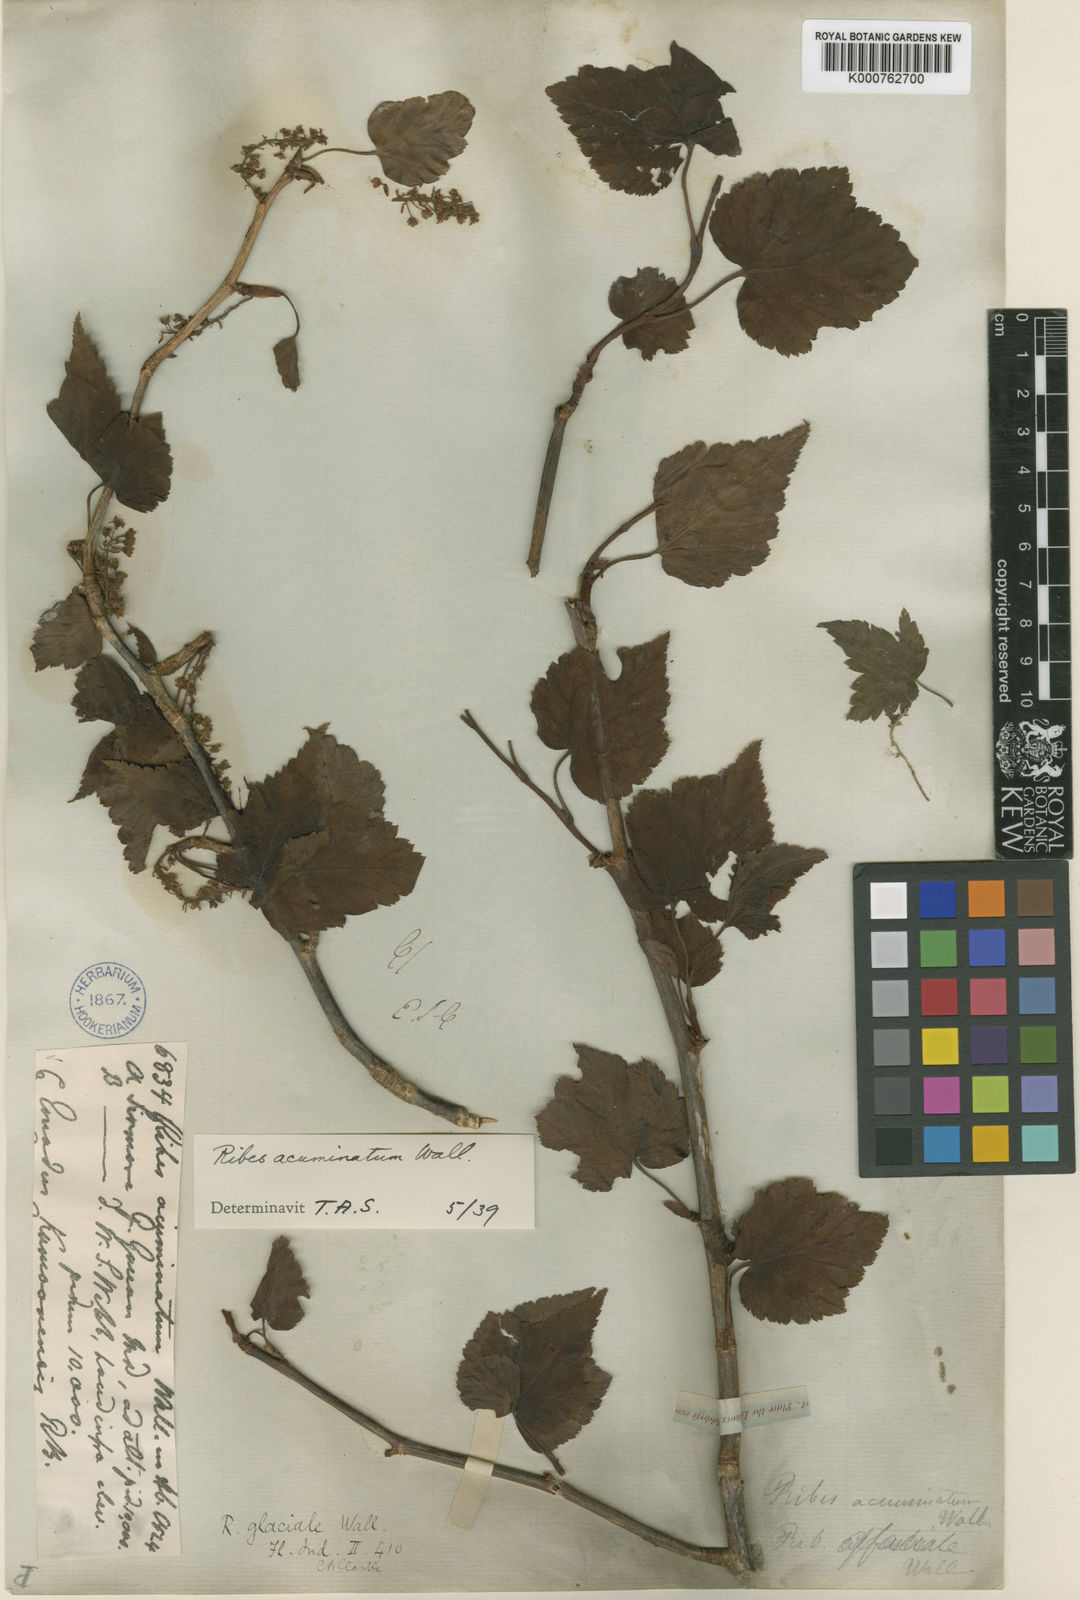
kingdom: Plantae
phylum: Tracheophyta
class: Magnoliopsida
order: Saxifragales
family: Grossulariaceae
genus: Ribes
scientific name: Ribes
